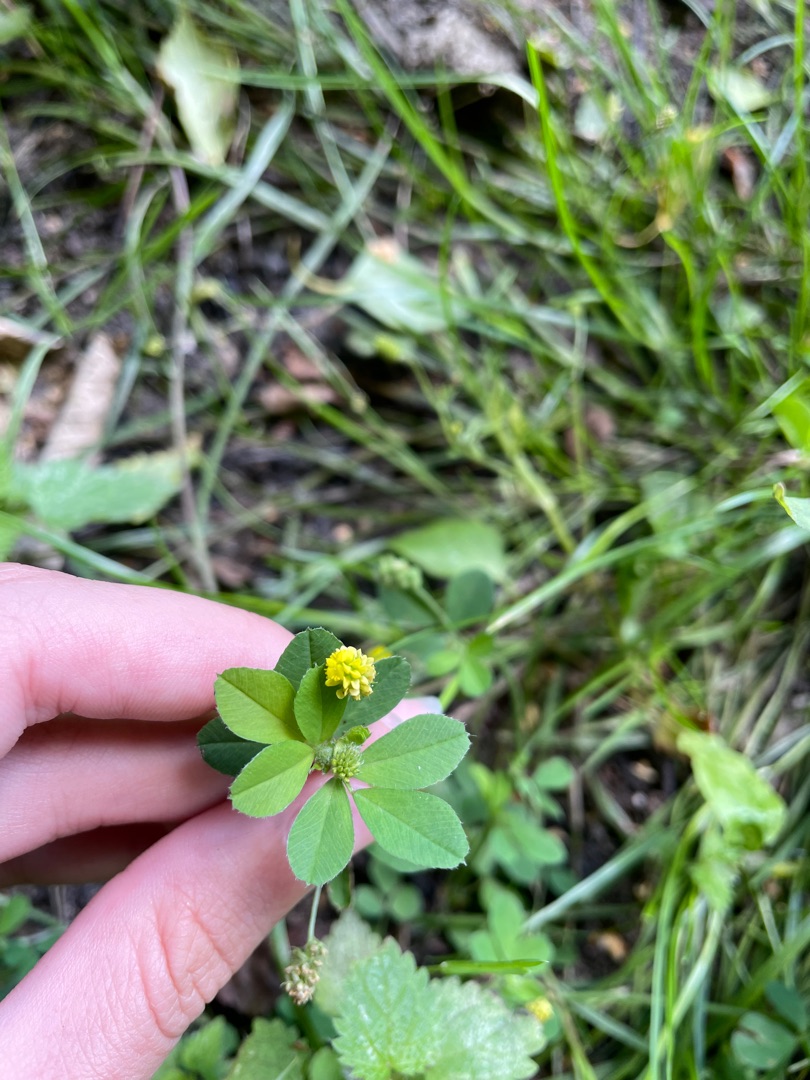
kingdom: Plantae
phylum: Tracheophyta
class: Magnoliopsida
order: Fabales
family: Fabaceae
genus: Medicago
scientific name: Medicago lupulina
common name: Humle-sneglebælg
